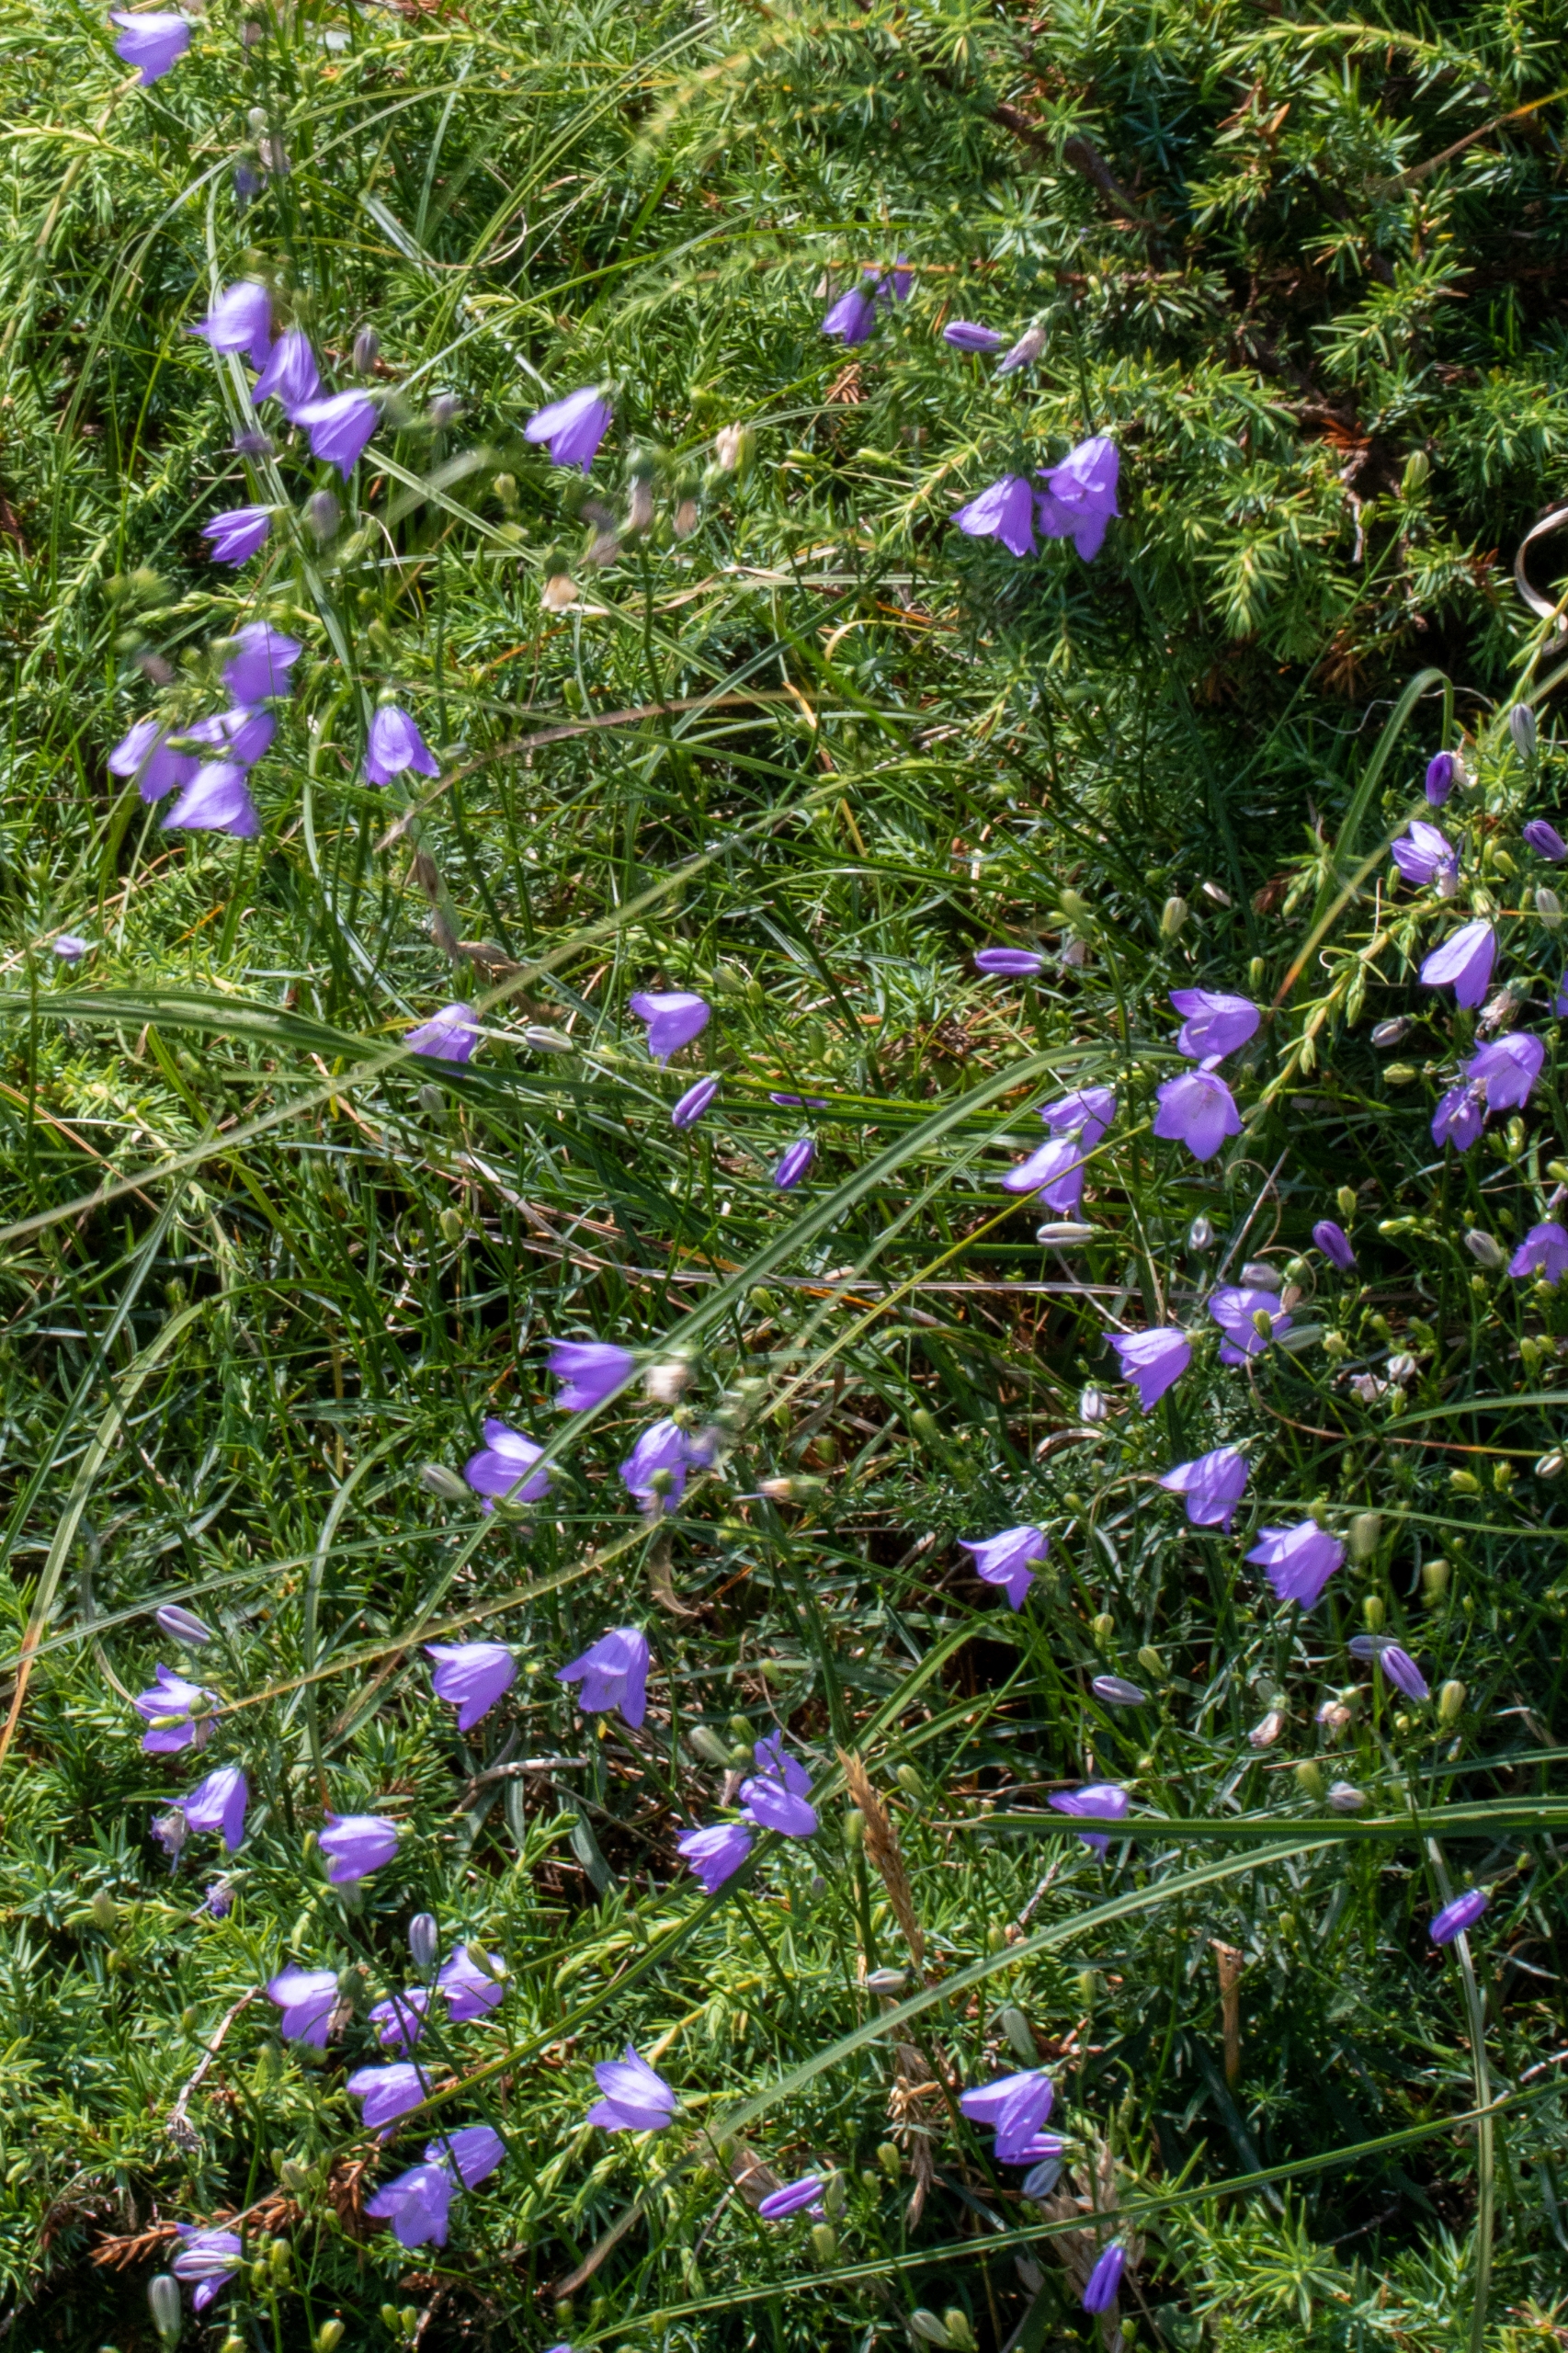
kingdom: Plantae
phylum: Tracheophyta
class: Magnoliopsida
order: Asterales
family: Campanulaceae
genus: Campanula
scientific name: Campanula rotundifolia
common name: Liden klokke
